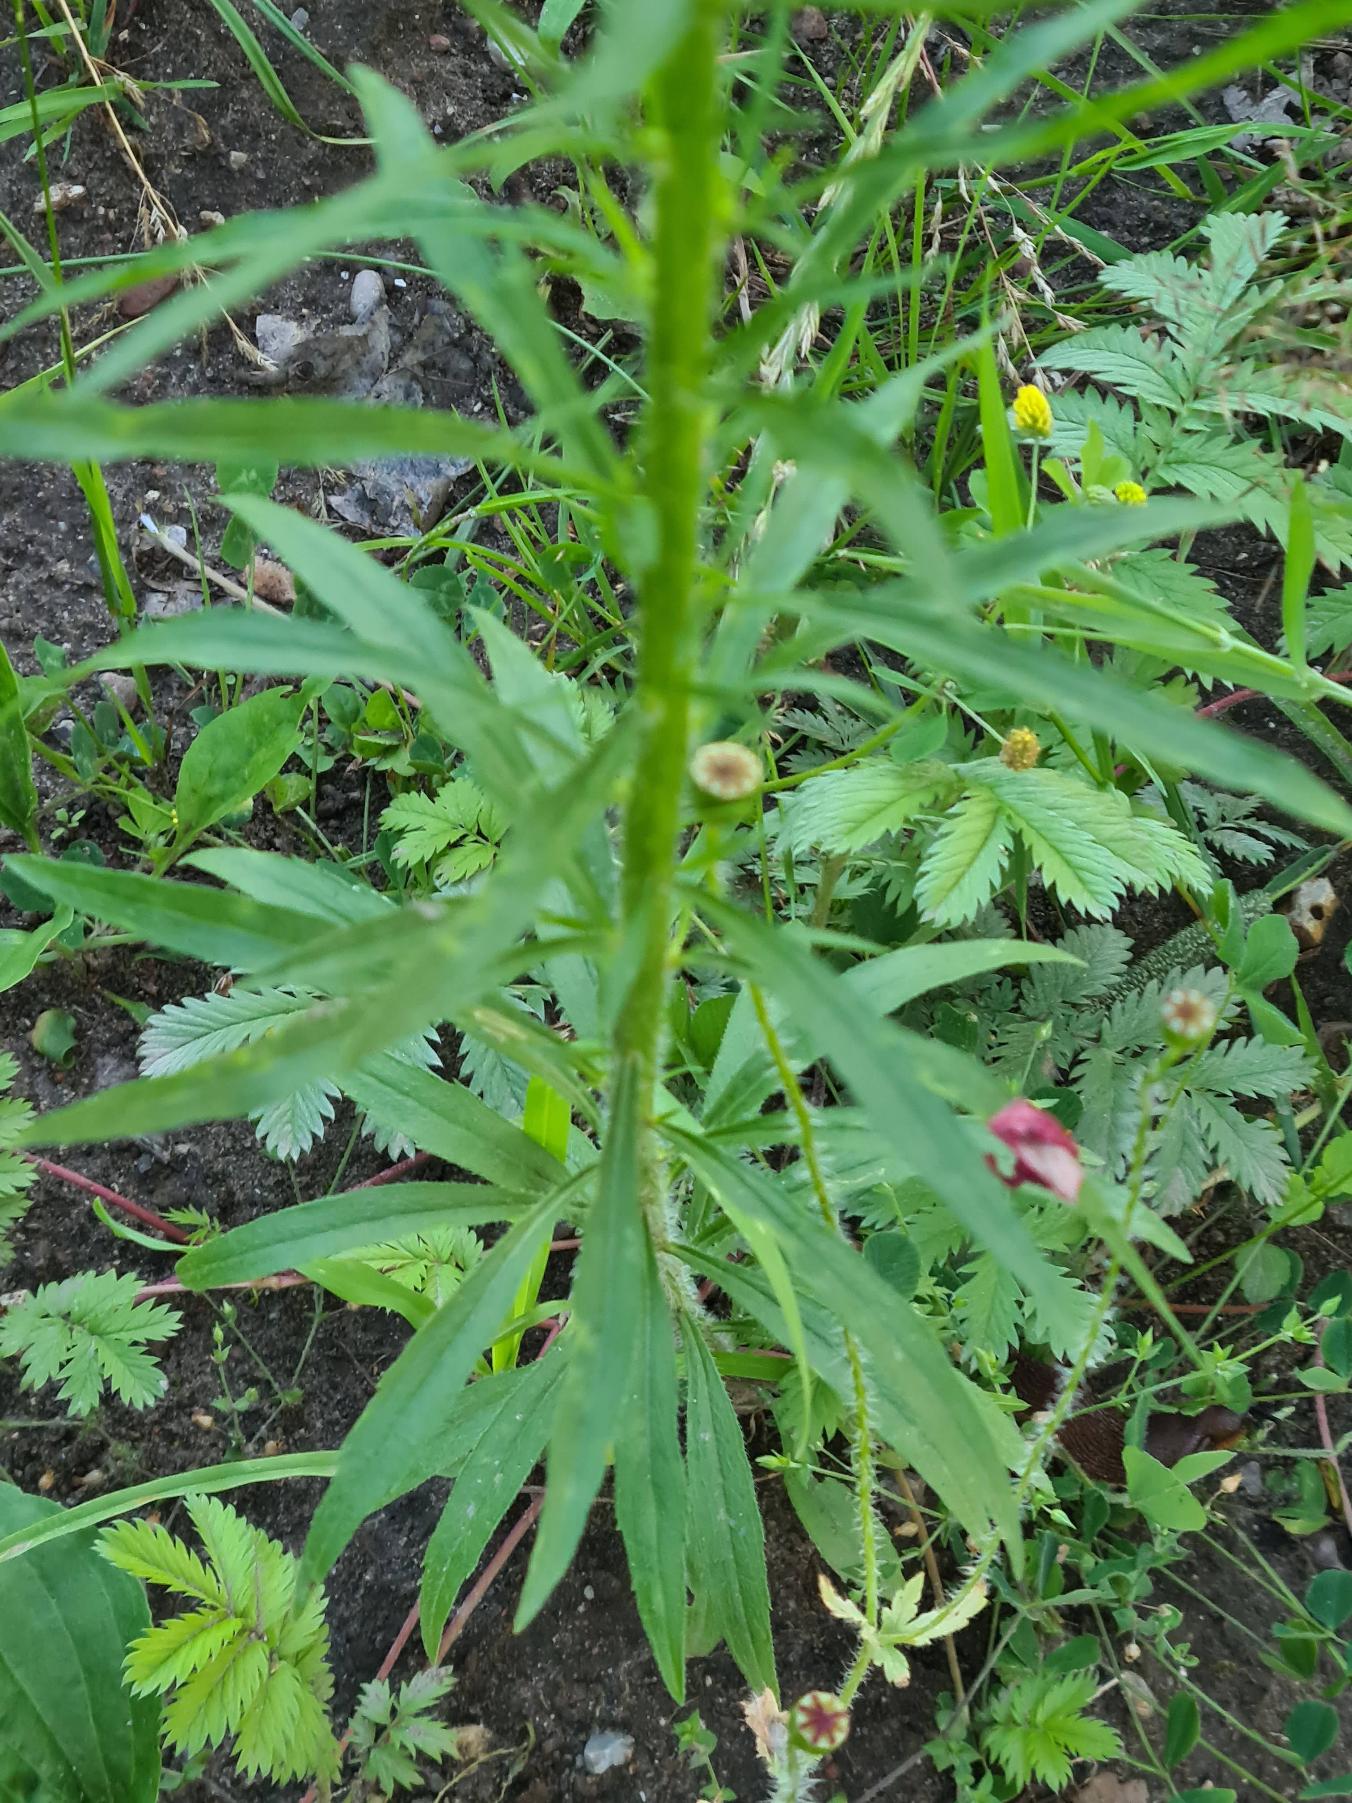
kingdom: Plantae
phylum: Tracheophyta
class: Magnoliopsida
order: Asterales
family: Asteraceae
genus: Erigeron
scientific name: Erigeron canadensis
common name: Kanadisk bakkestjerne
